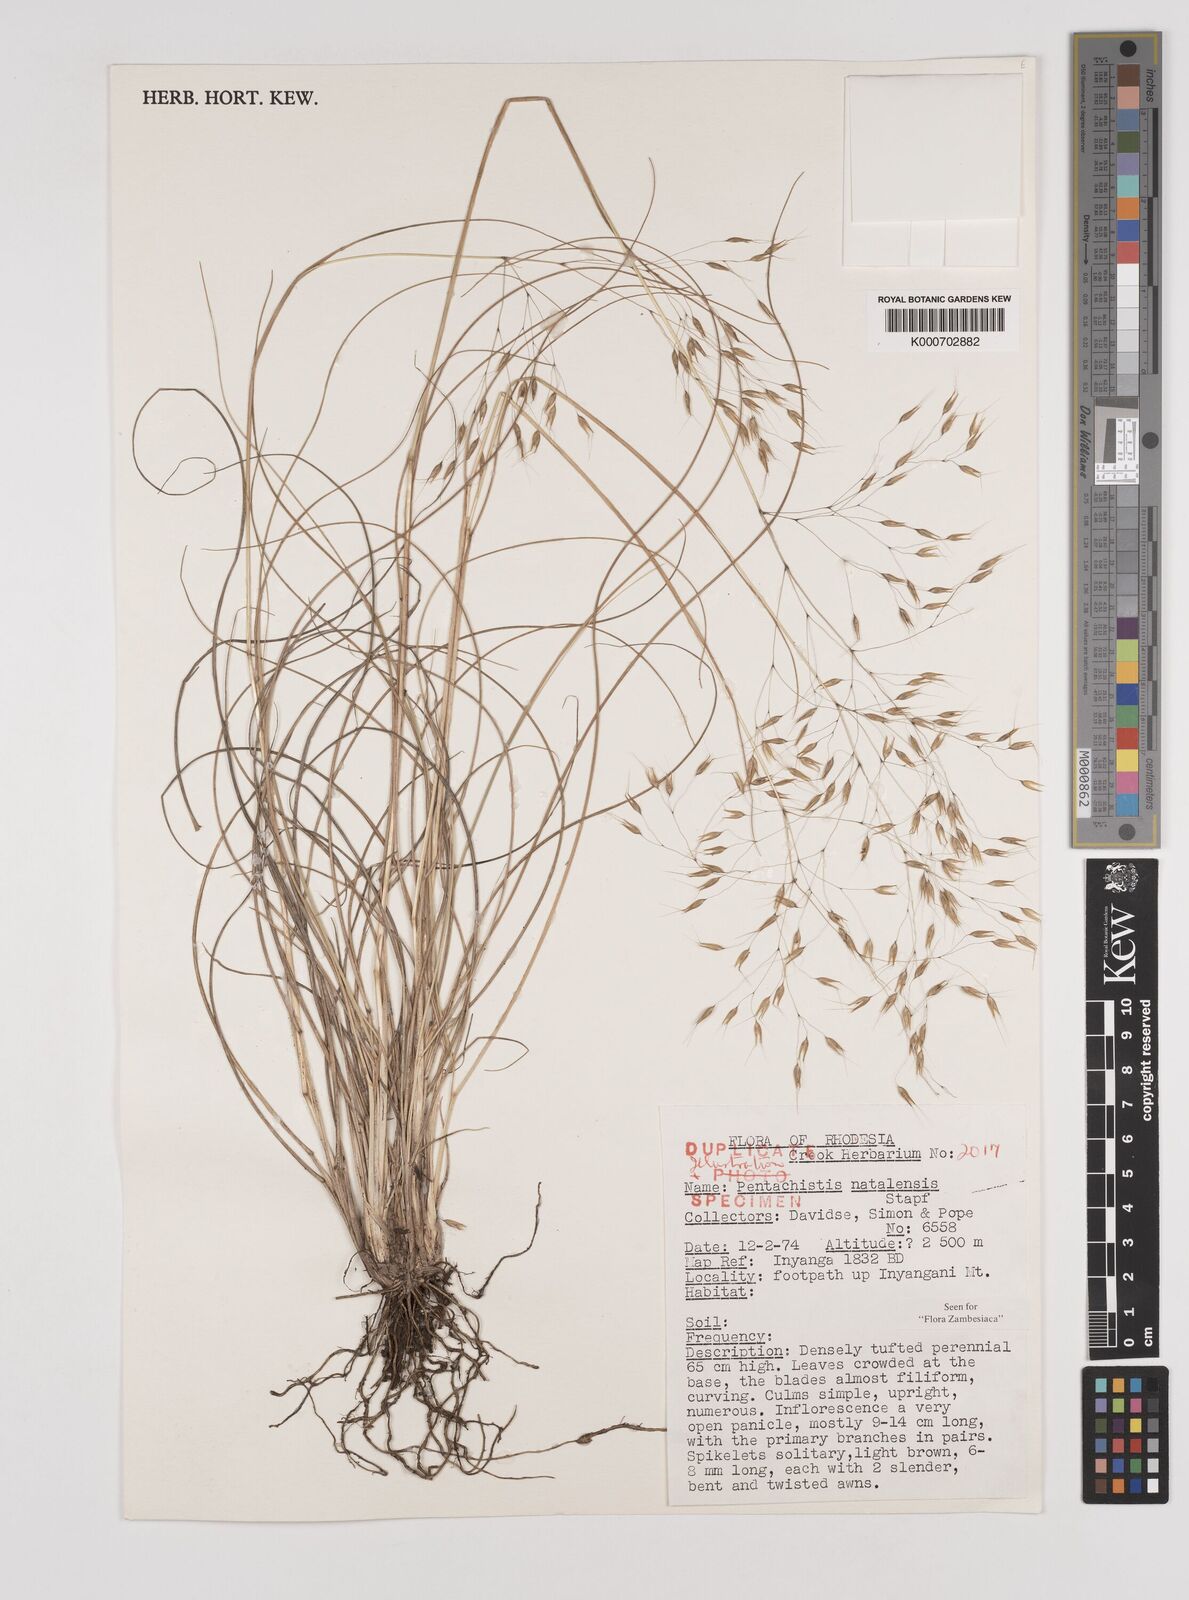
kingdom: Plantae
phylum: Tracheophyta
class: Liliopsida
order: Poales
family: Poaceae
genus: Pentameris
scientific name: Pentameris natalensis
